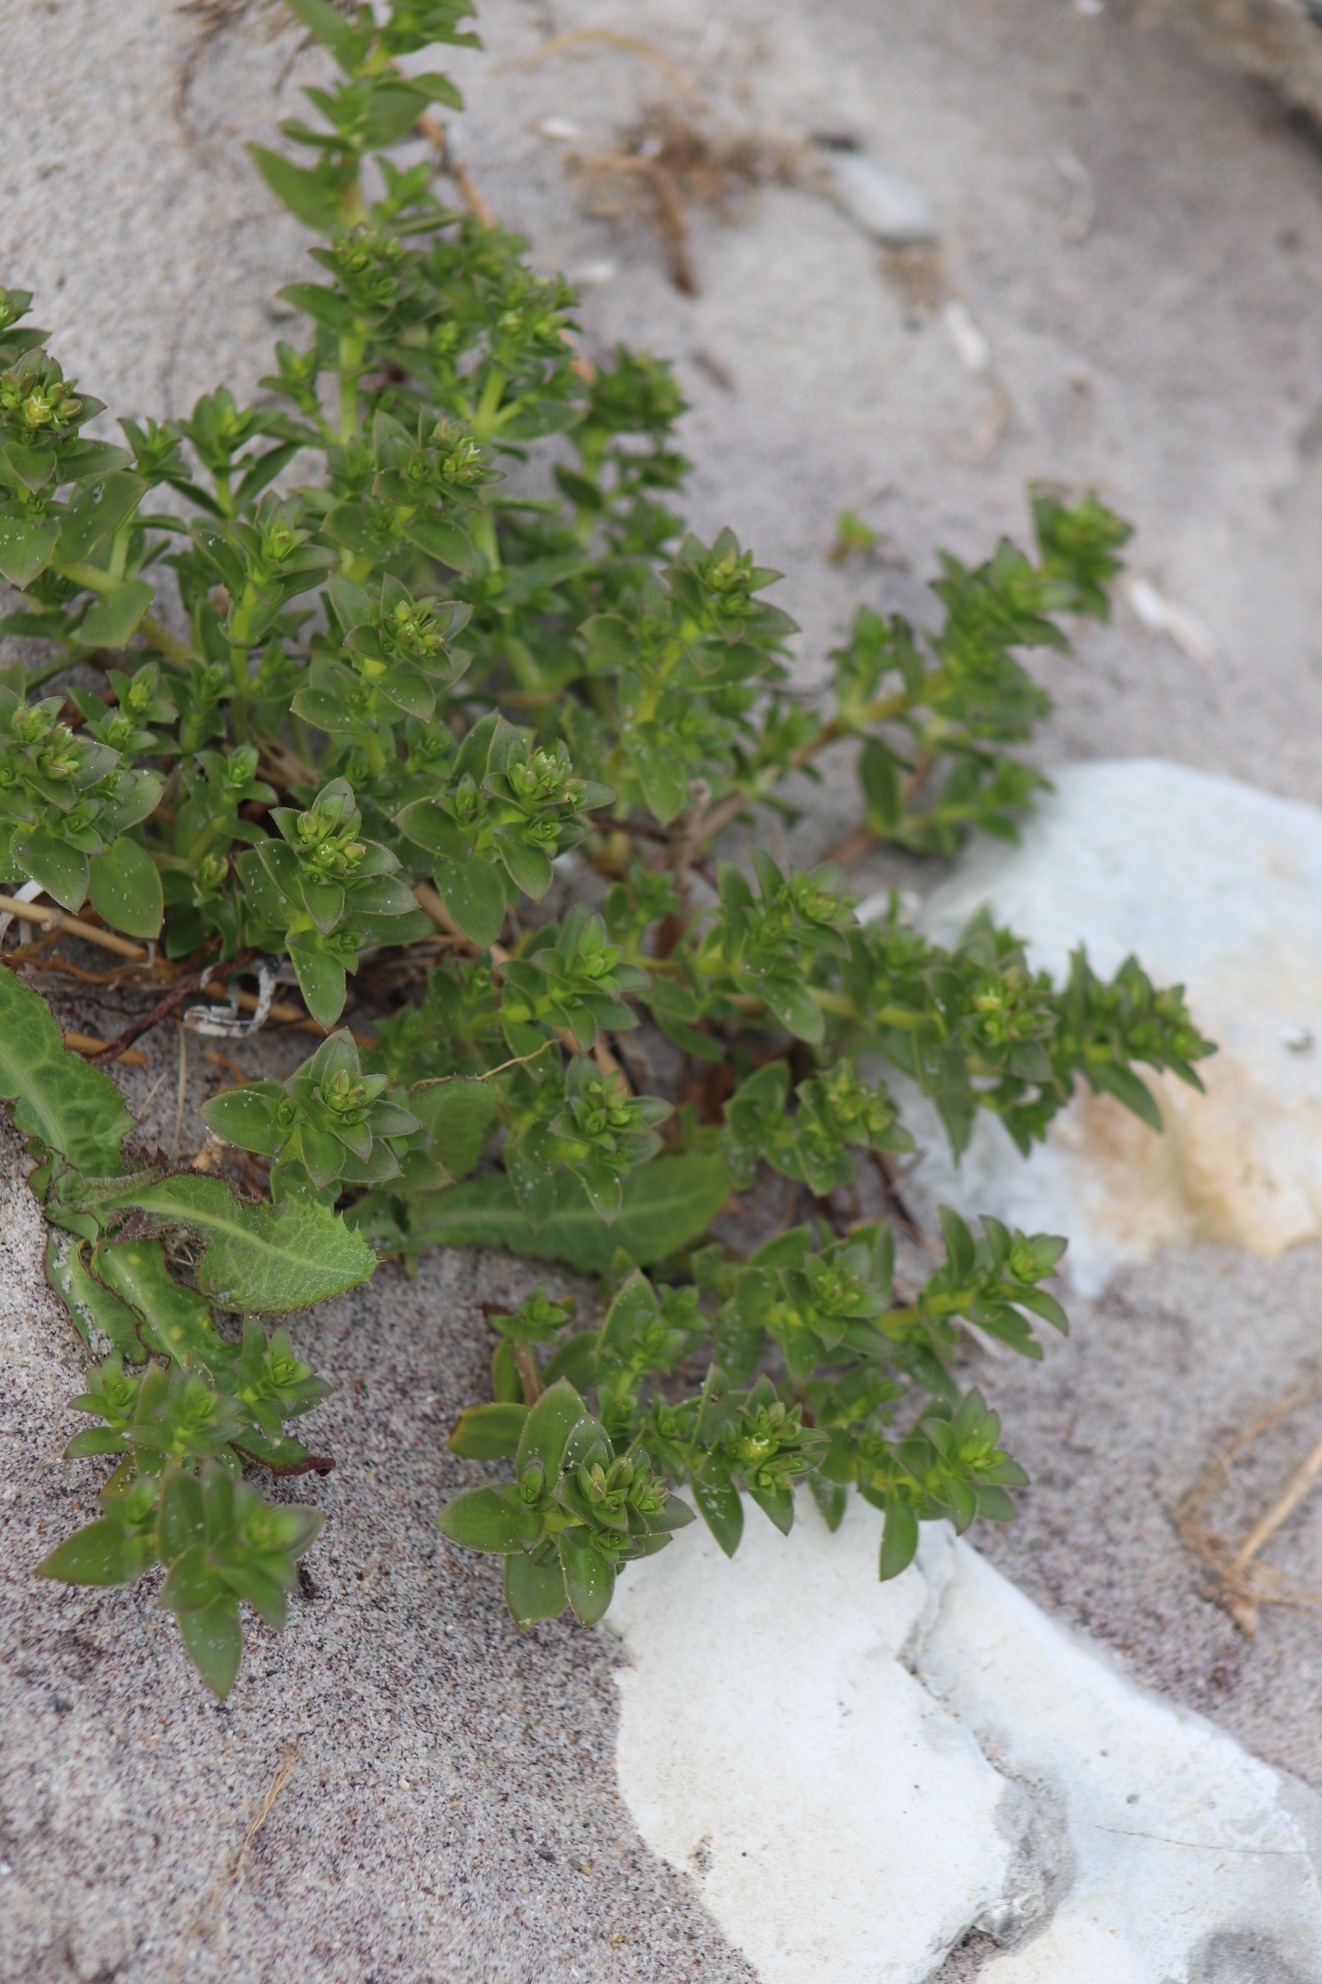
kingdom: Plantae
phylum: Tracheophyta
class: Magnoliopsida
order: Caryophyllales
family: Caryophyllaceae
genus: Honckenya
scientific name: Honckenya peploides
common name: Strandarve
